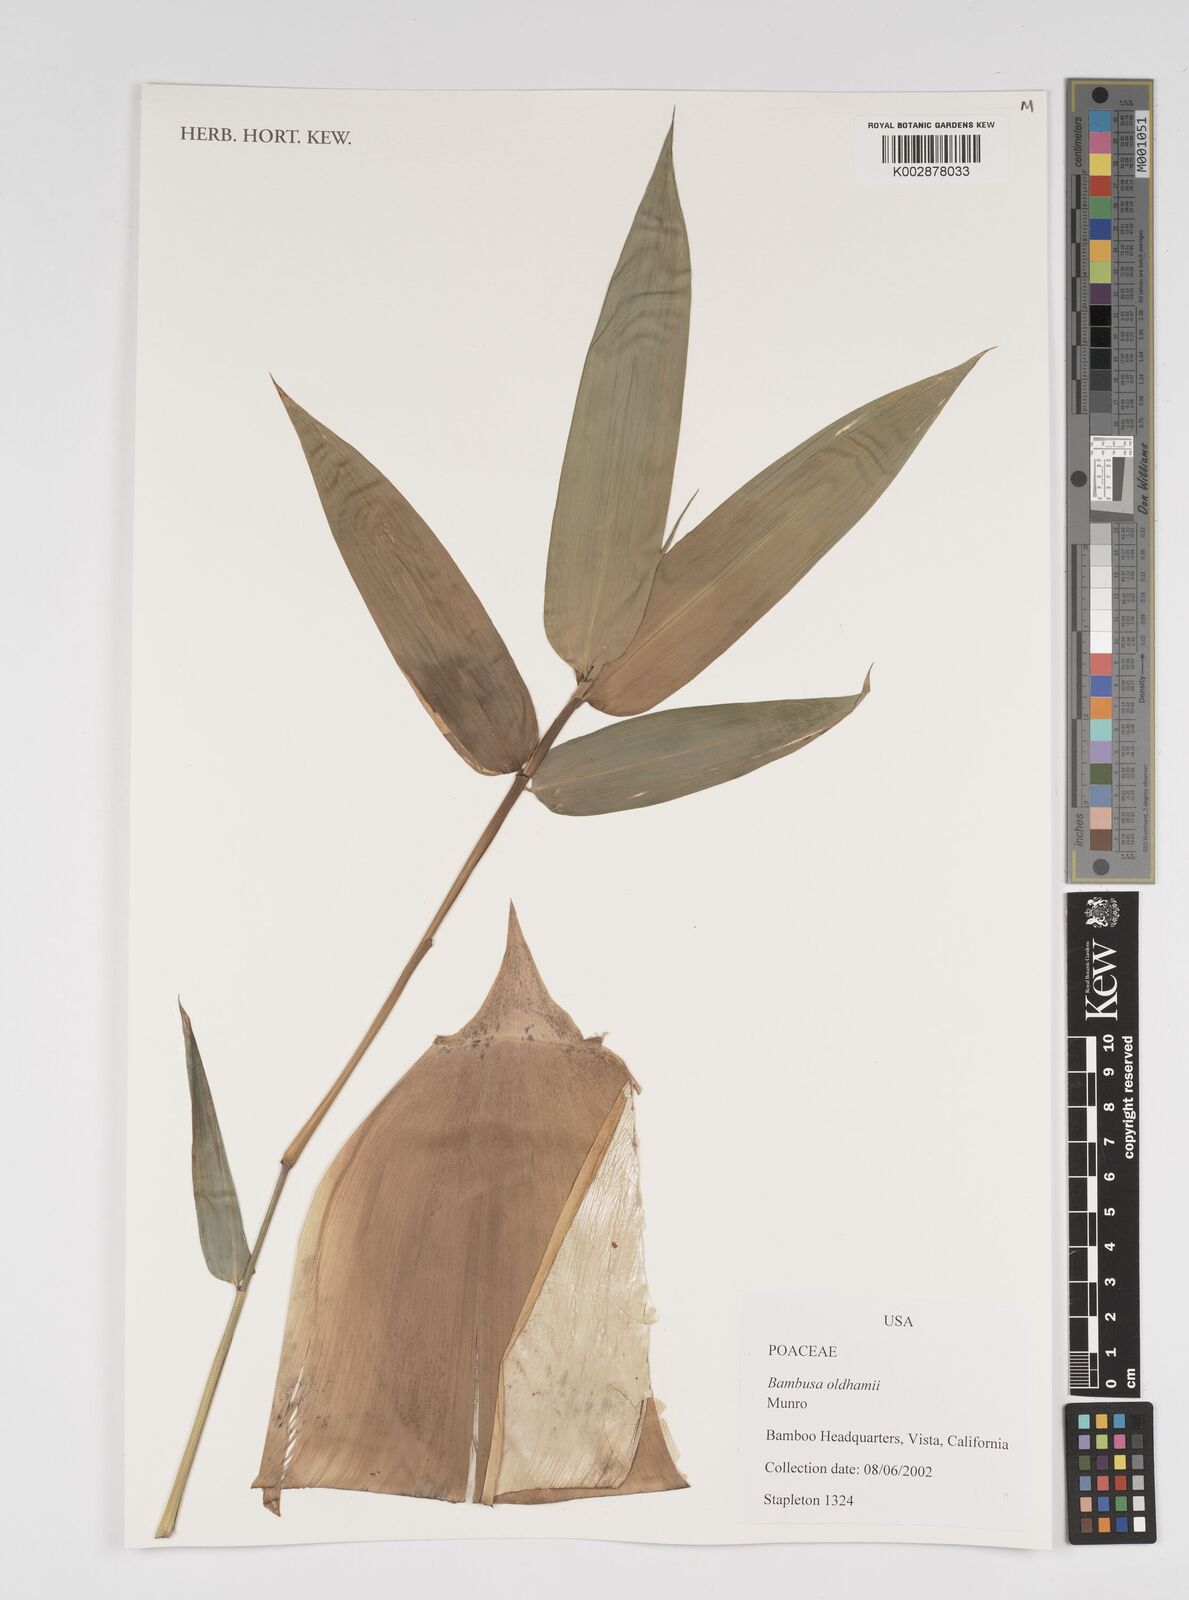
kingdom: Plantae
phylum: Tracheophyta
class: Liliopsida
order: Poales
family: Poaceae
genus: Bambusa
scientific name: Bambusa oldhamii
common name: Giant timber bamboo
